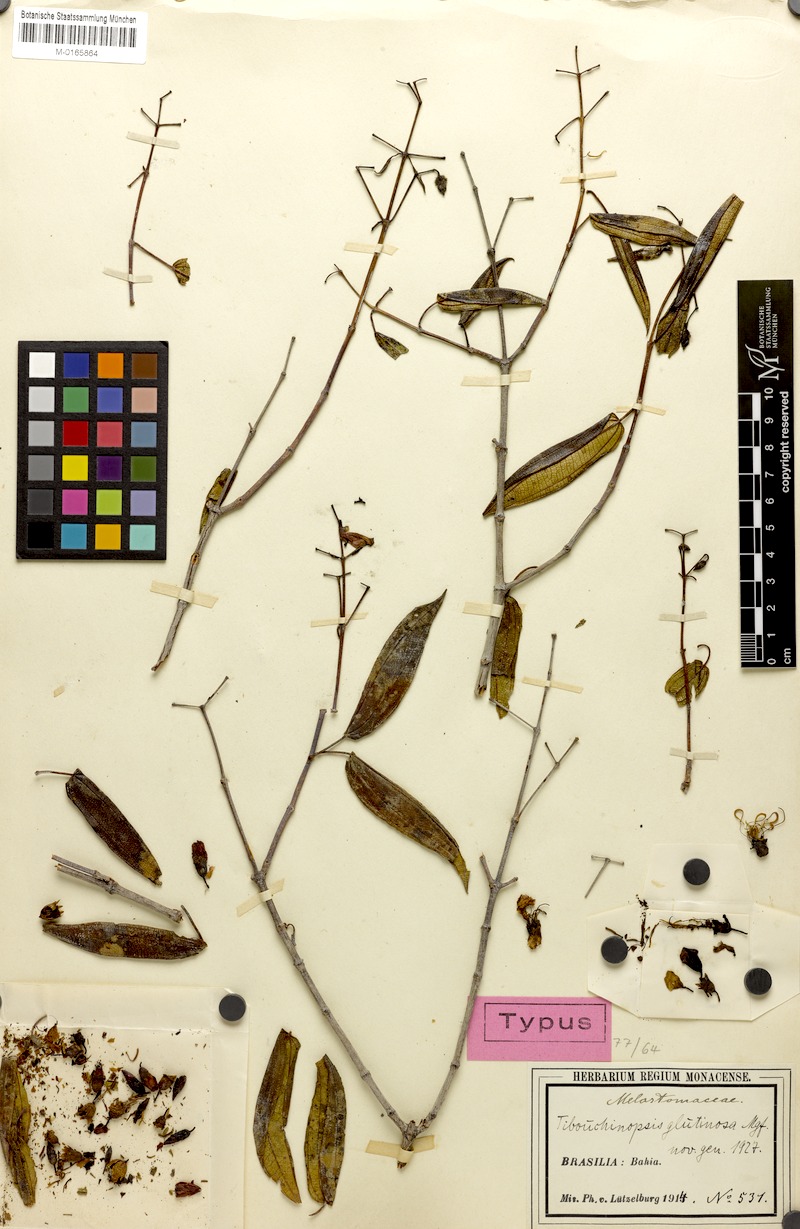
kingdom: Plantae
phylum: Tracheophyta
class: Magnoliopsida
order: Myrtales
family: Melastomataceae
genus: Pleroma
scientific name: Pleroma glutinosum
